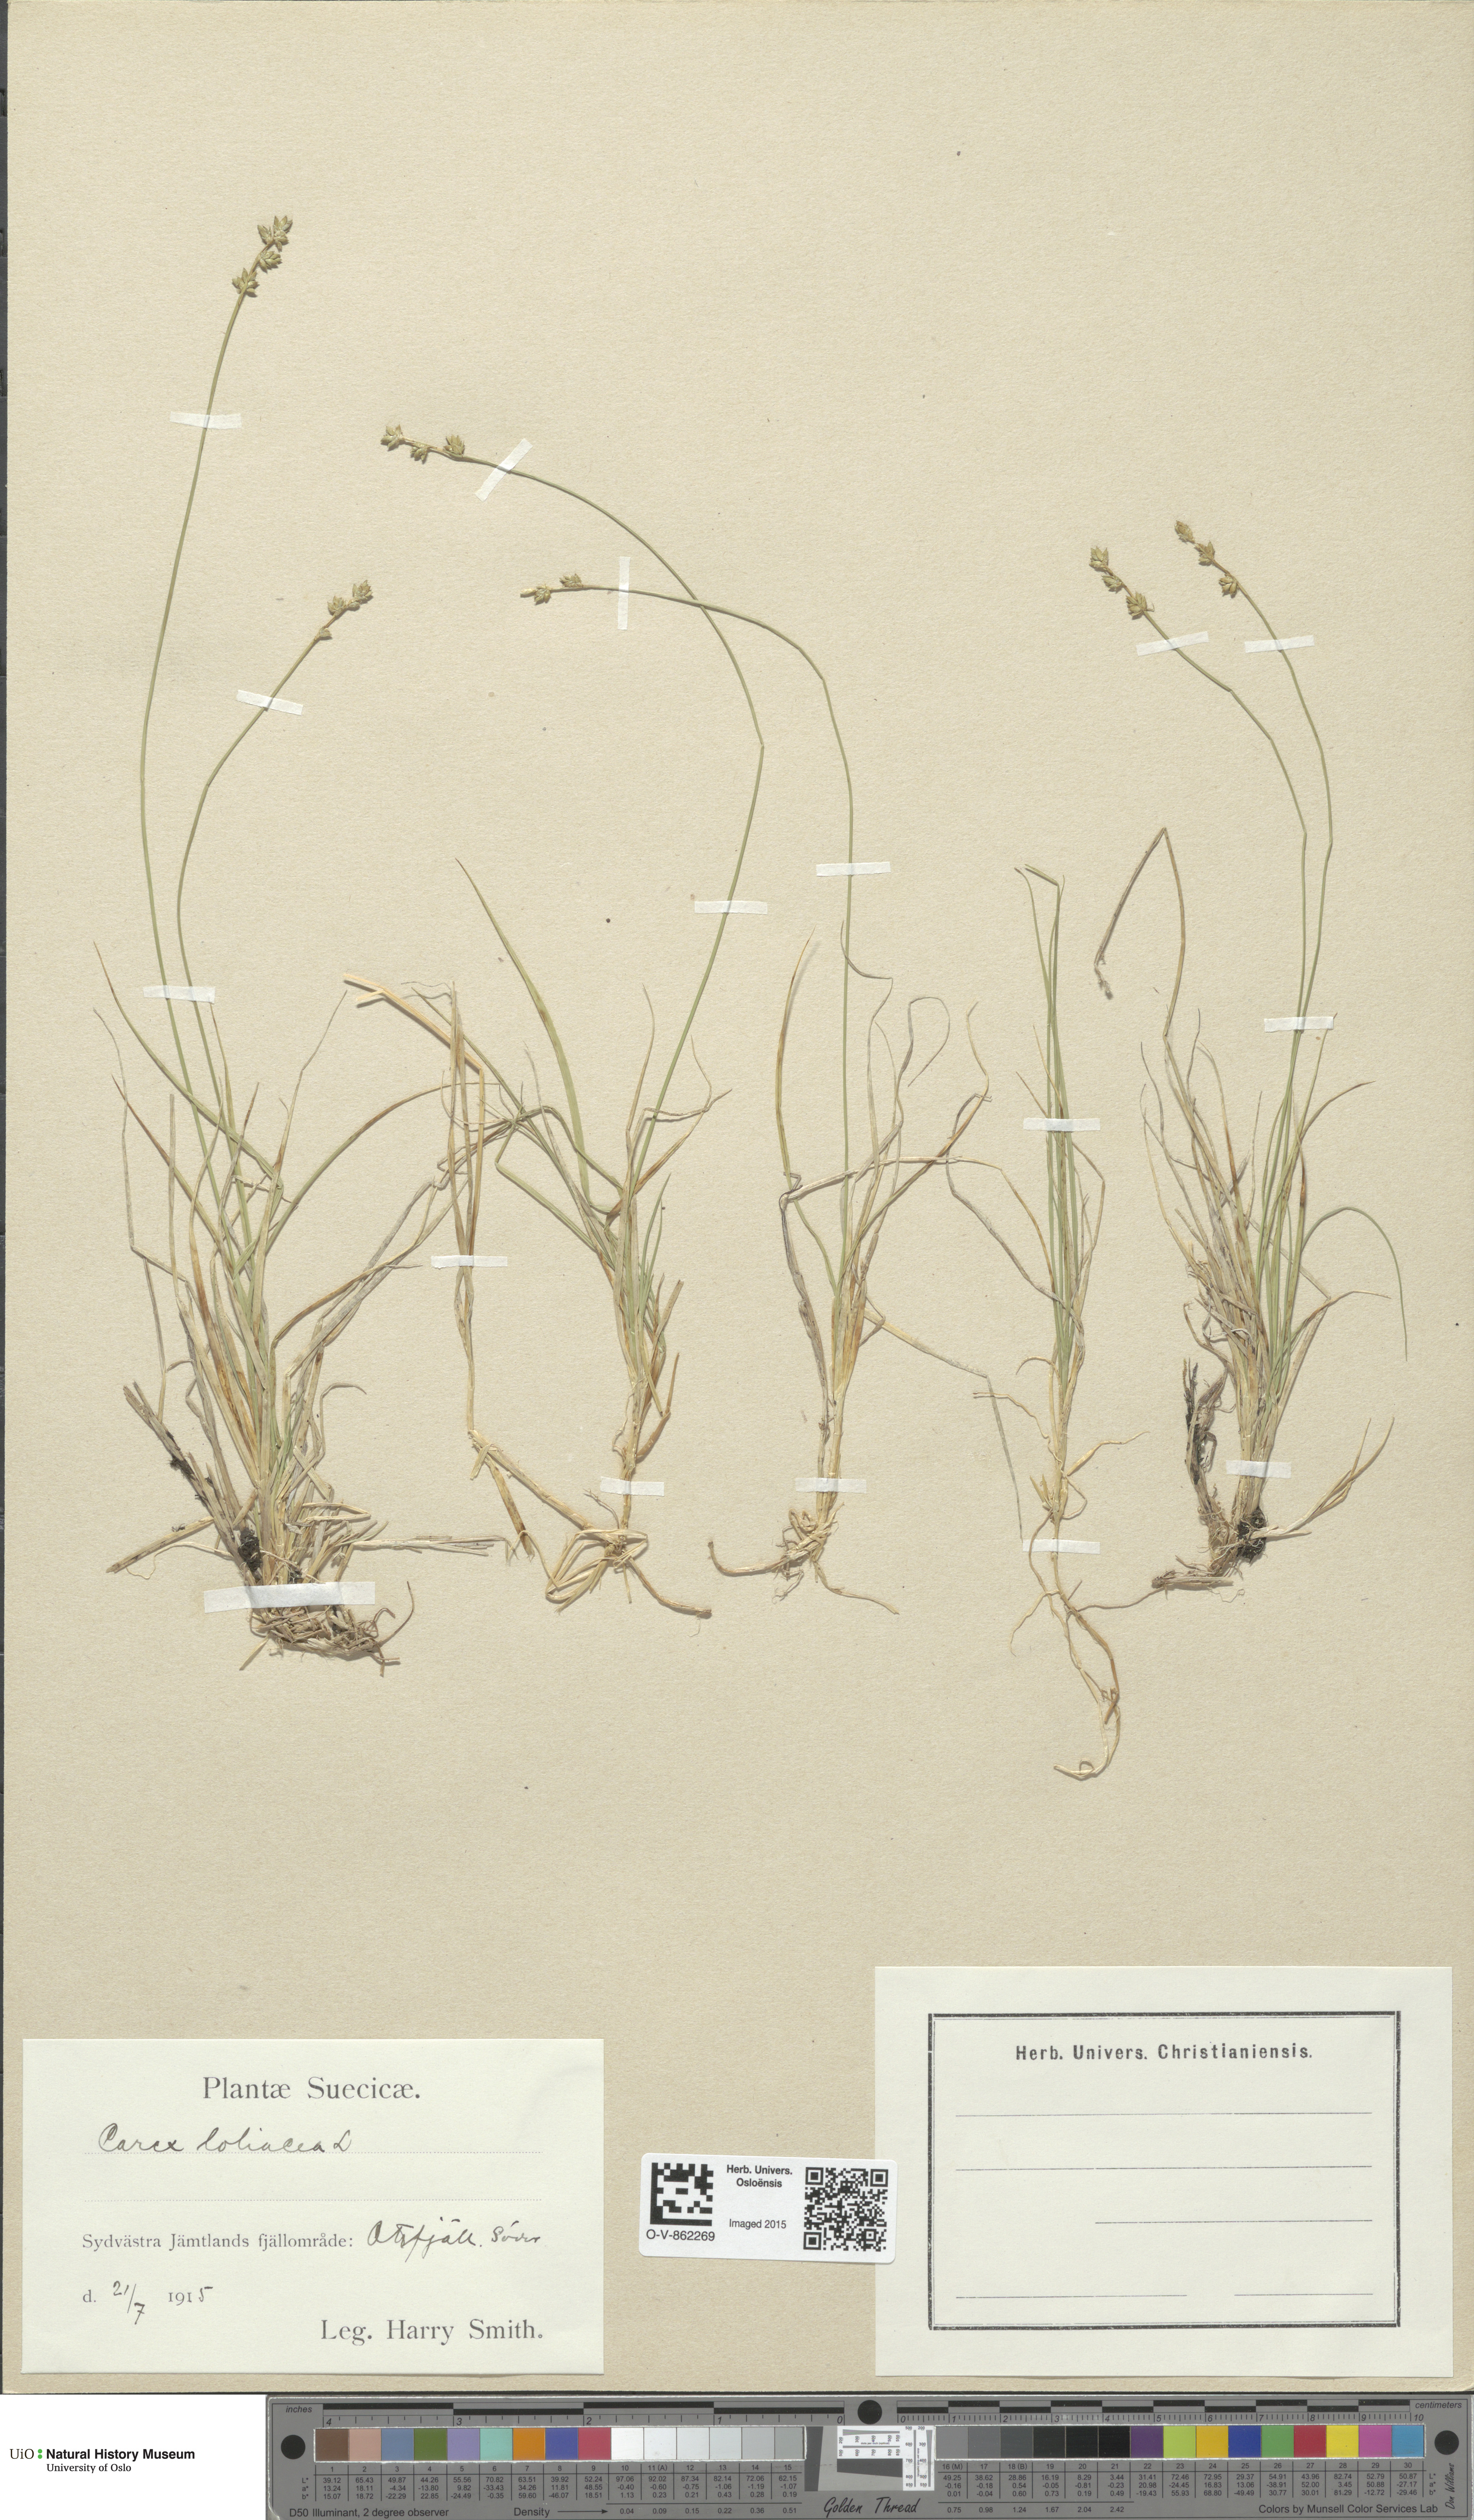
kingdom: Plantae
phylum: Tracheophyta
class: Liliopsida
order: Poales
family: Cyperaceae
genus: Carex
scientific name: Carex loliacea
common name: Ryegrass sedge
